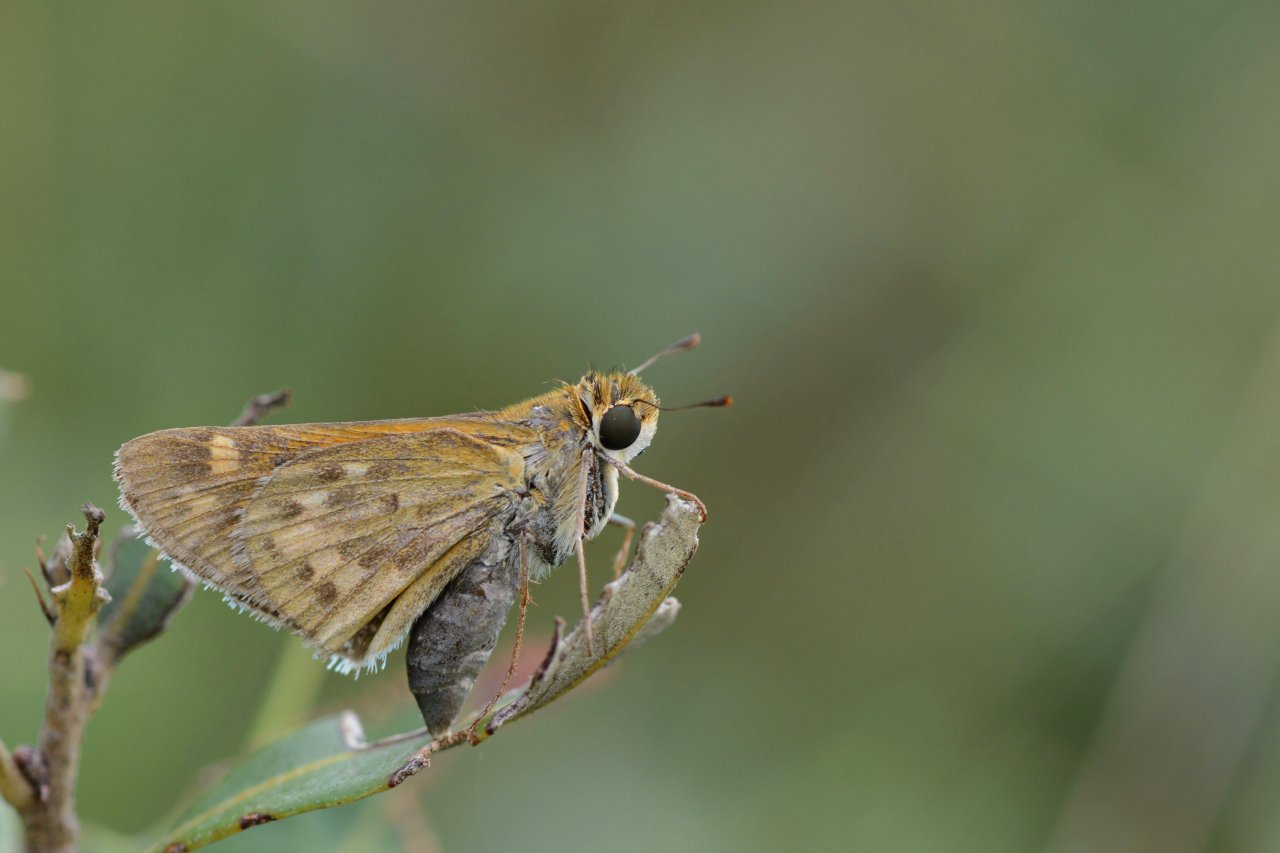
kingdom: Animalia
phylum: Arthropoda
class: Insecta
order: Lepidoptera
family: Hesperiidae
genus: Hylephila
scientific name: Hylephila phyleus
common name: Fiery Skipper
